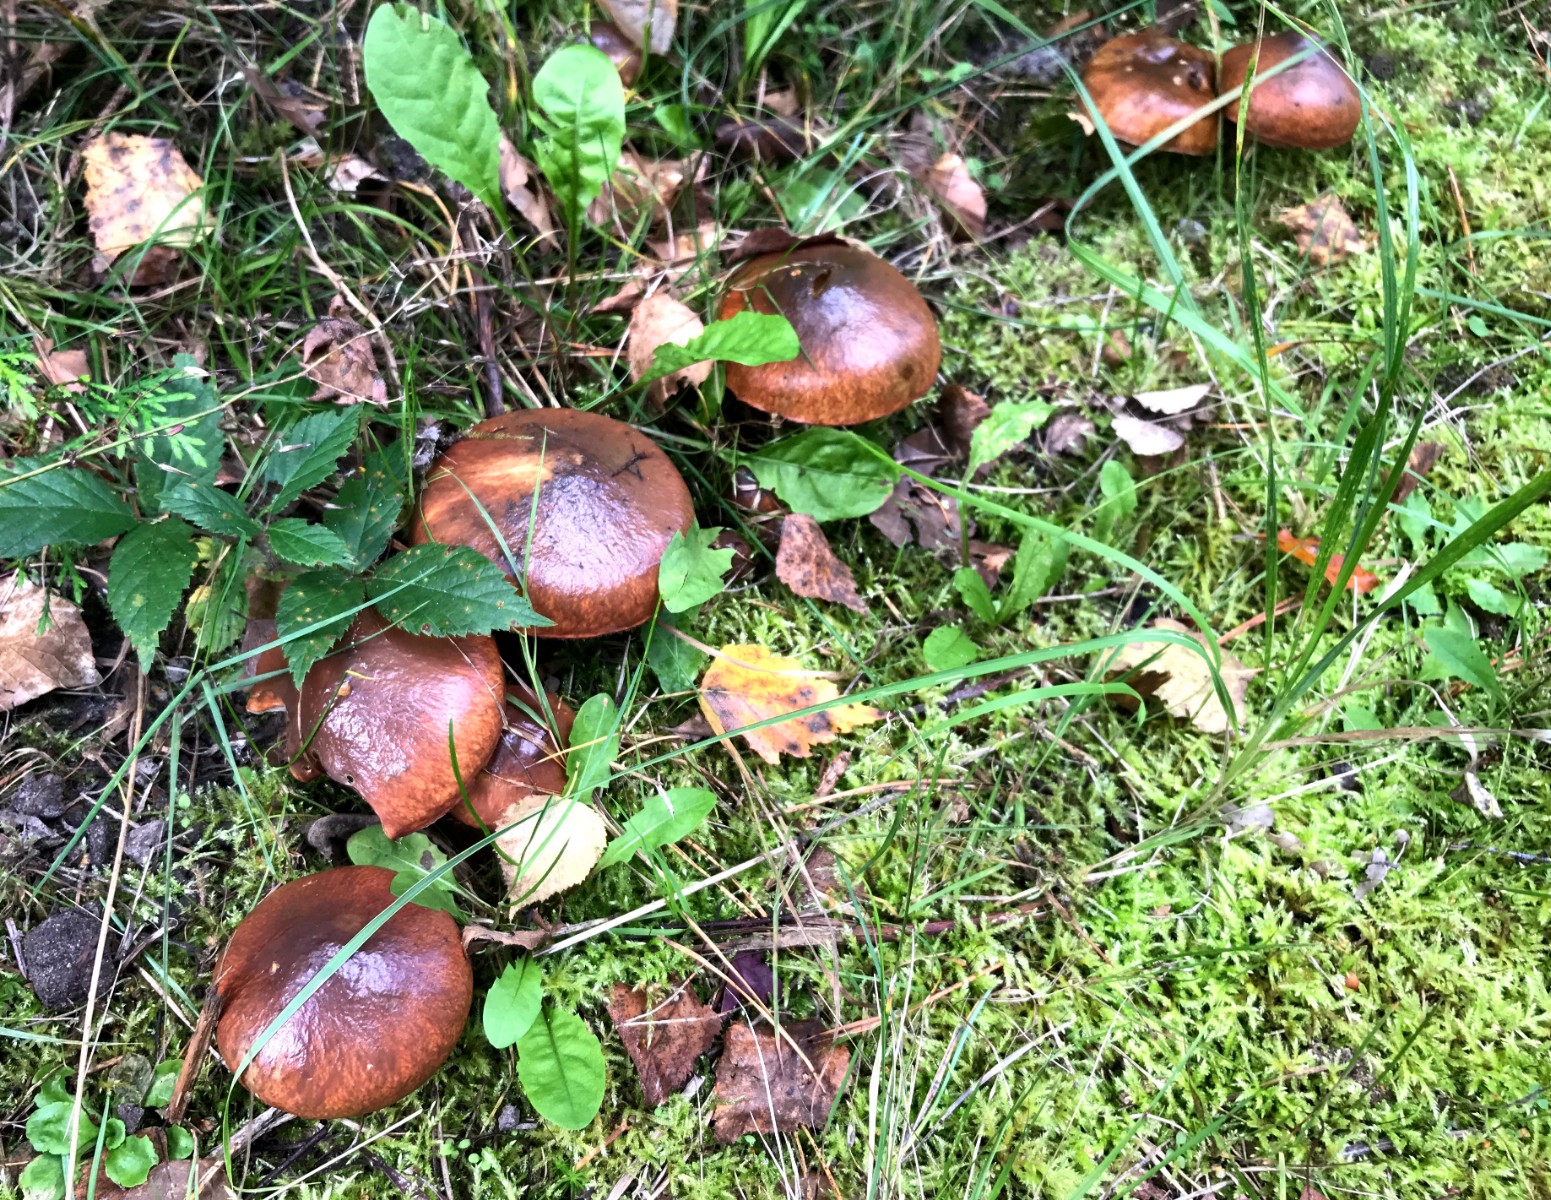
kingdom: Fungi
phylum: Basidiomycota
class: Agaricomycetes
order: Boletales
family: Suillaceae
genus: Suillus
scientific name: Suillus luteus
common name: brungul slimrørhat
